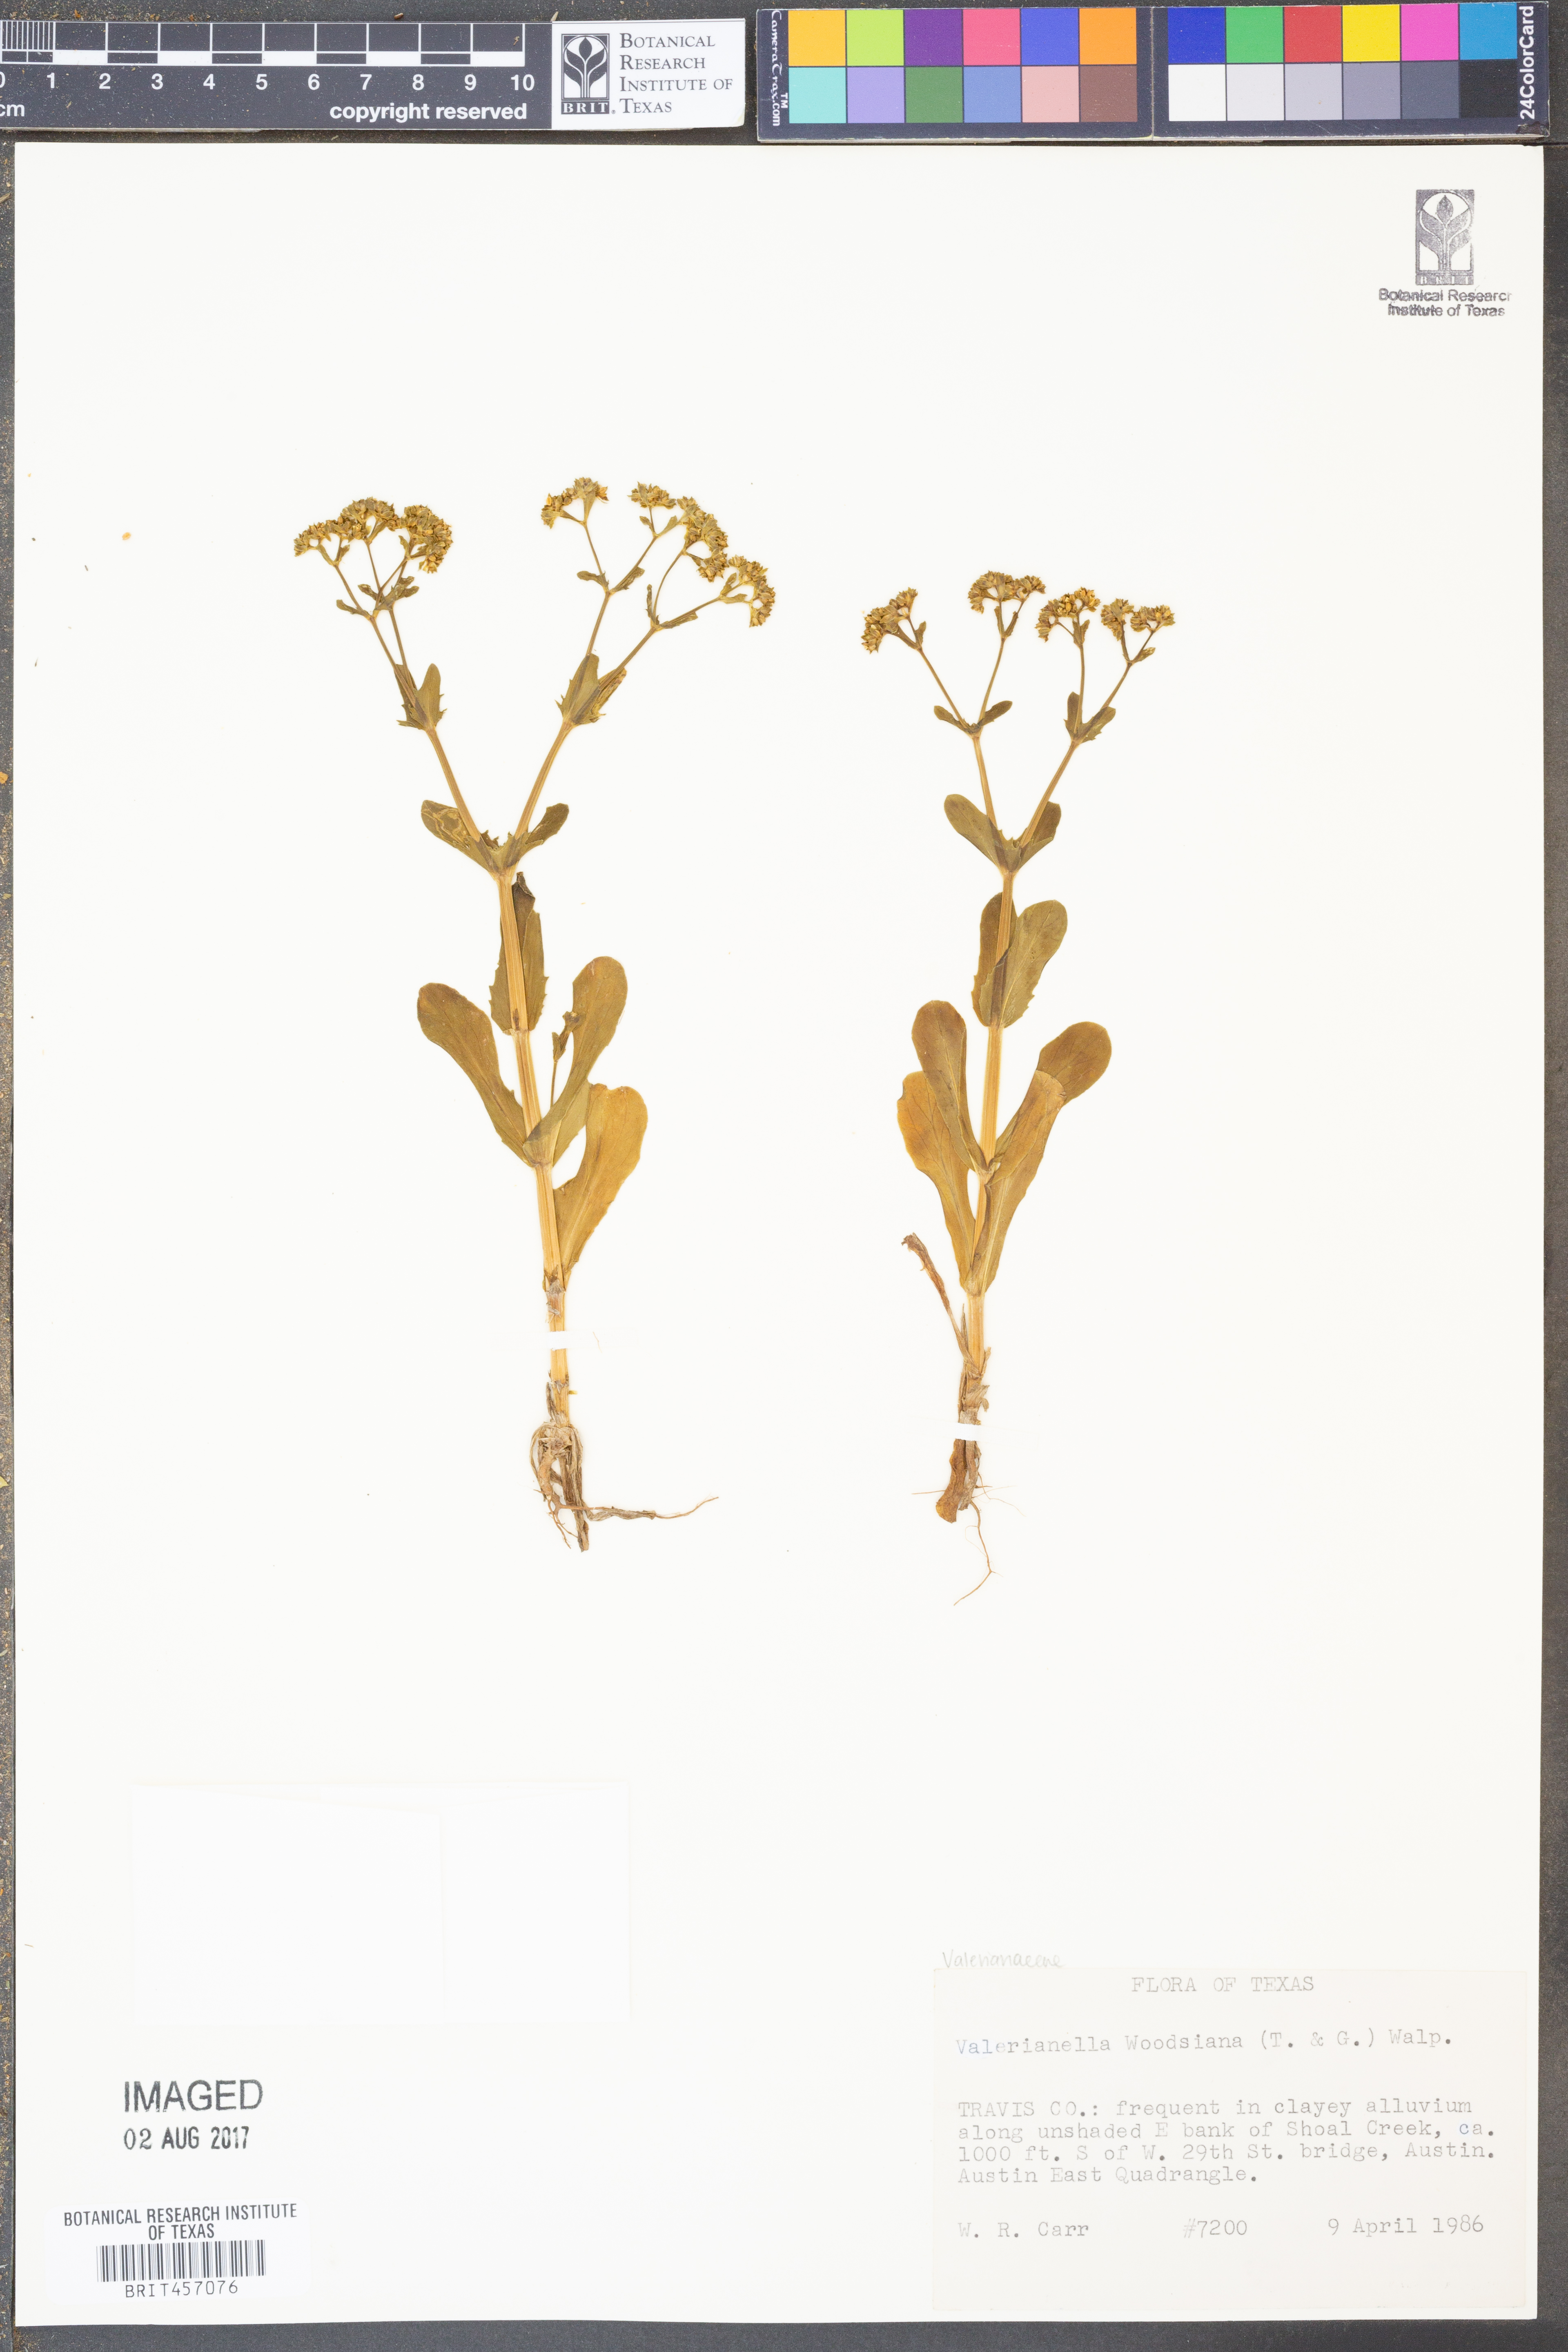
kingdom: Plantae
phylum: Tracheophyta
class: Magnoliopsida
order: Dipsacales
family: Caprifoliaceae
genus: Valerianella
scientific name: Valerianella radiata
